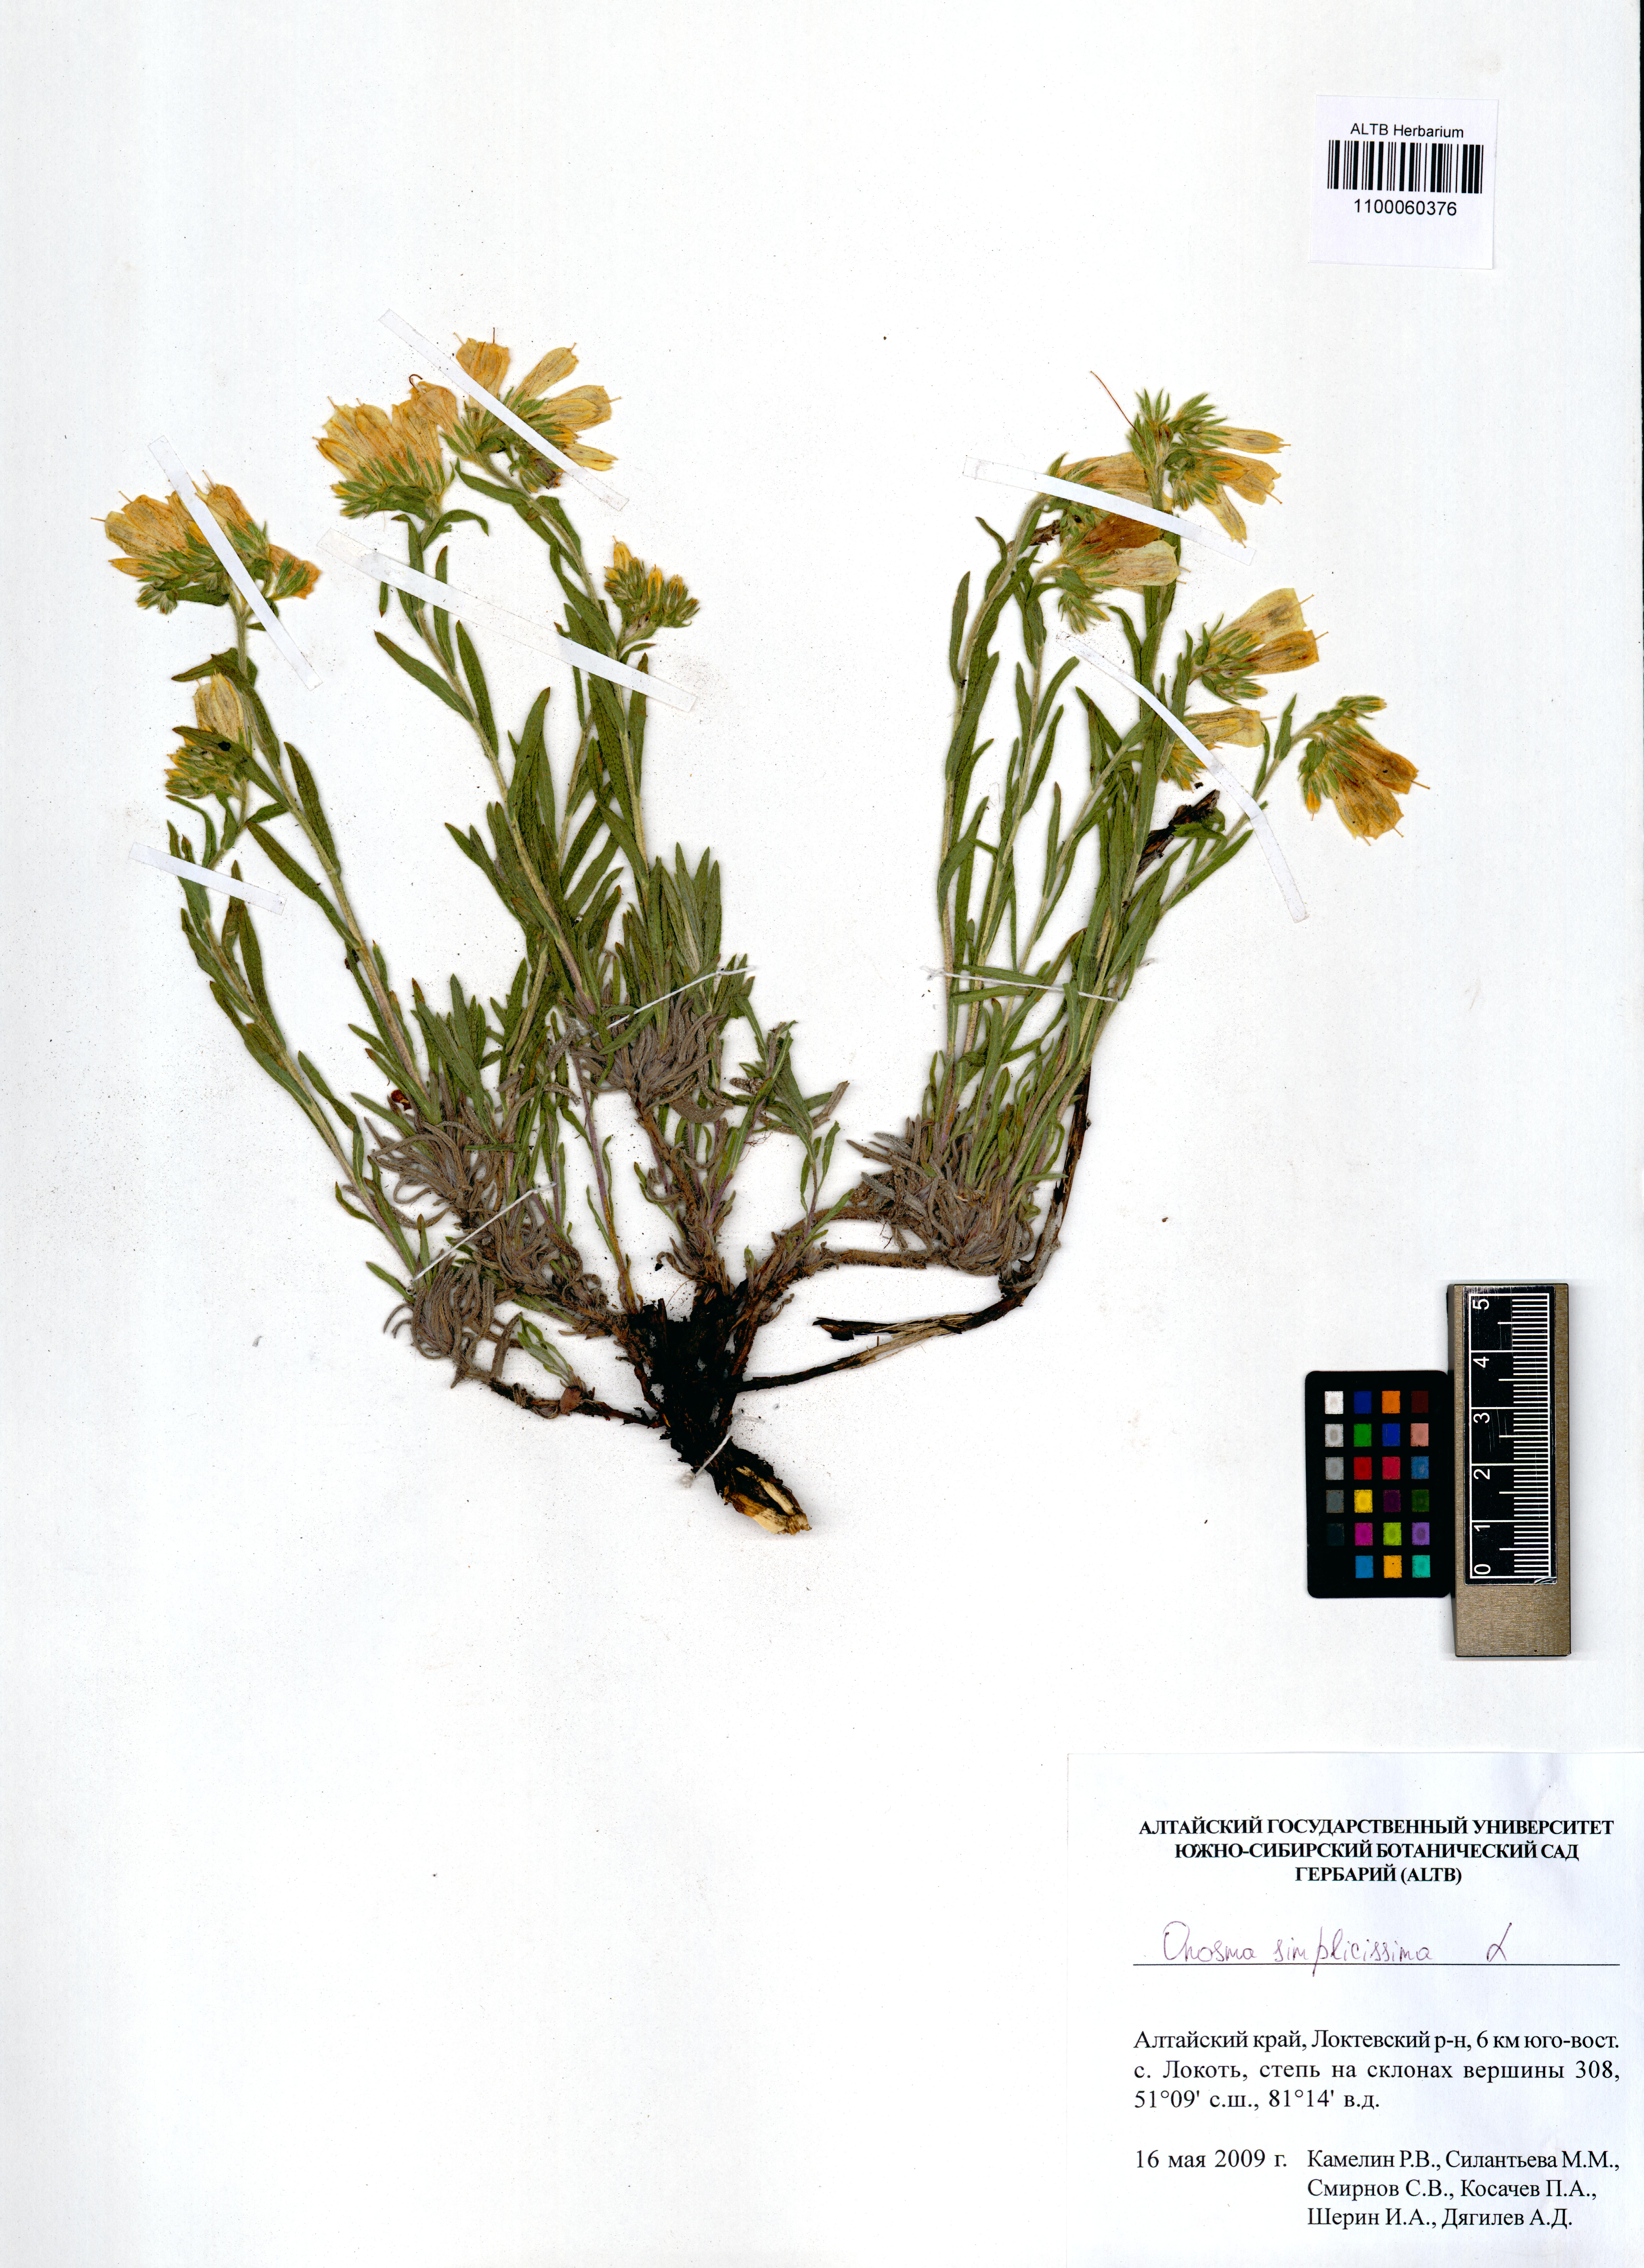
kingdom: Plantae
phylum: Tracheophyta
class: Magnoliopsida
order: Boraginales
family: Boraginaceae
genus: Onosma
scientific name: Onosma simplicissima
